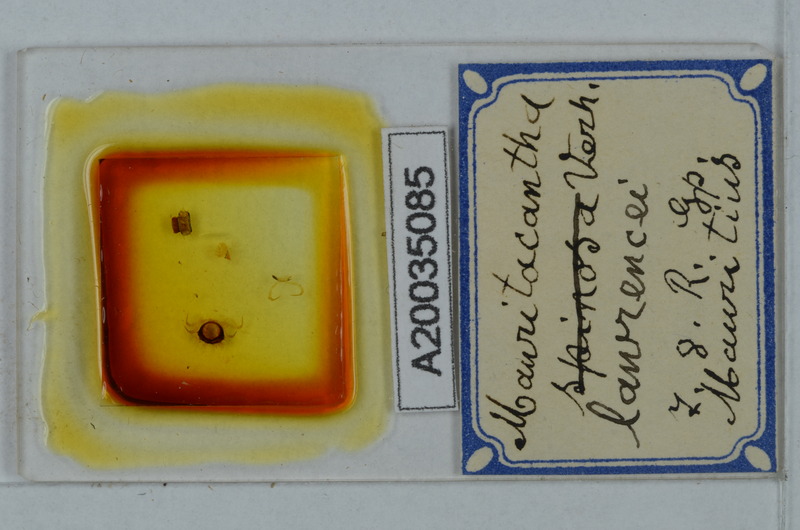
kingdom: Animalia
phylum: Arthropoda
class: Diplopoda
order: Polydesmida
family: Trichopolydesmidae
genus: Mauritacantha
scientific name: Mauritacantha lawrencei
